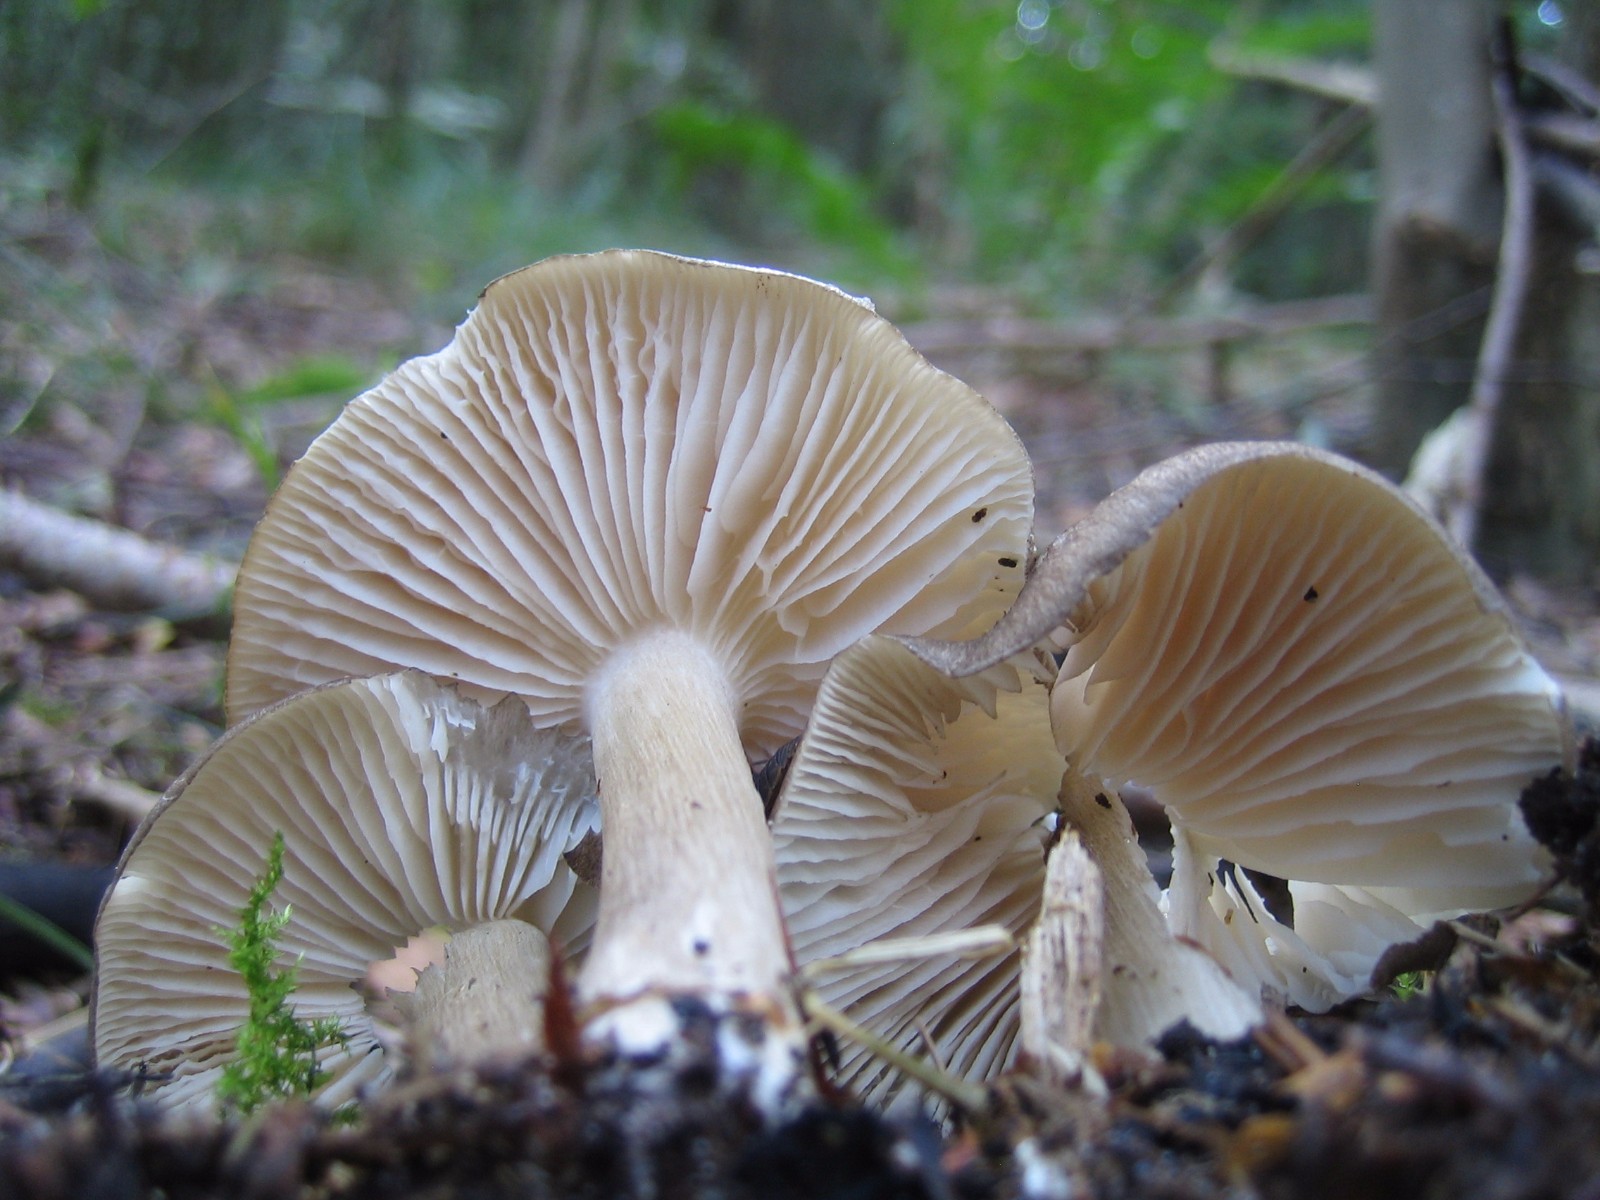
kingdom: Fungi
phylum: Basidiomycota
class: Agaricomycetes
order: Agaricales
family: Tricholomataceae
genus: Megacollybia
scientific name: Megacollybia platyphylla
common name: bredbladet væbnerhat
